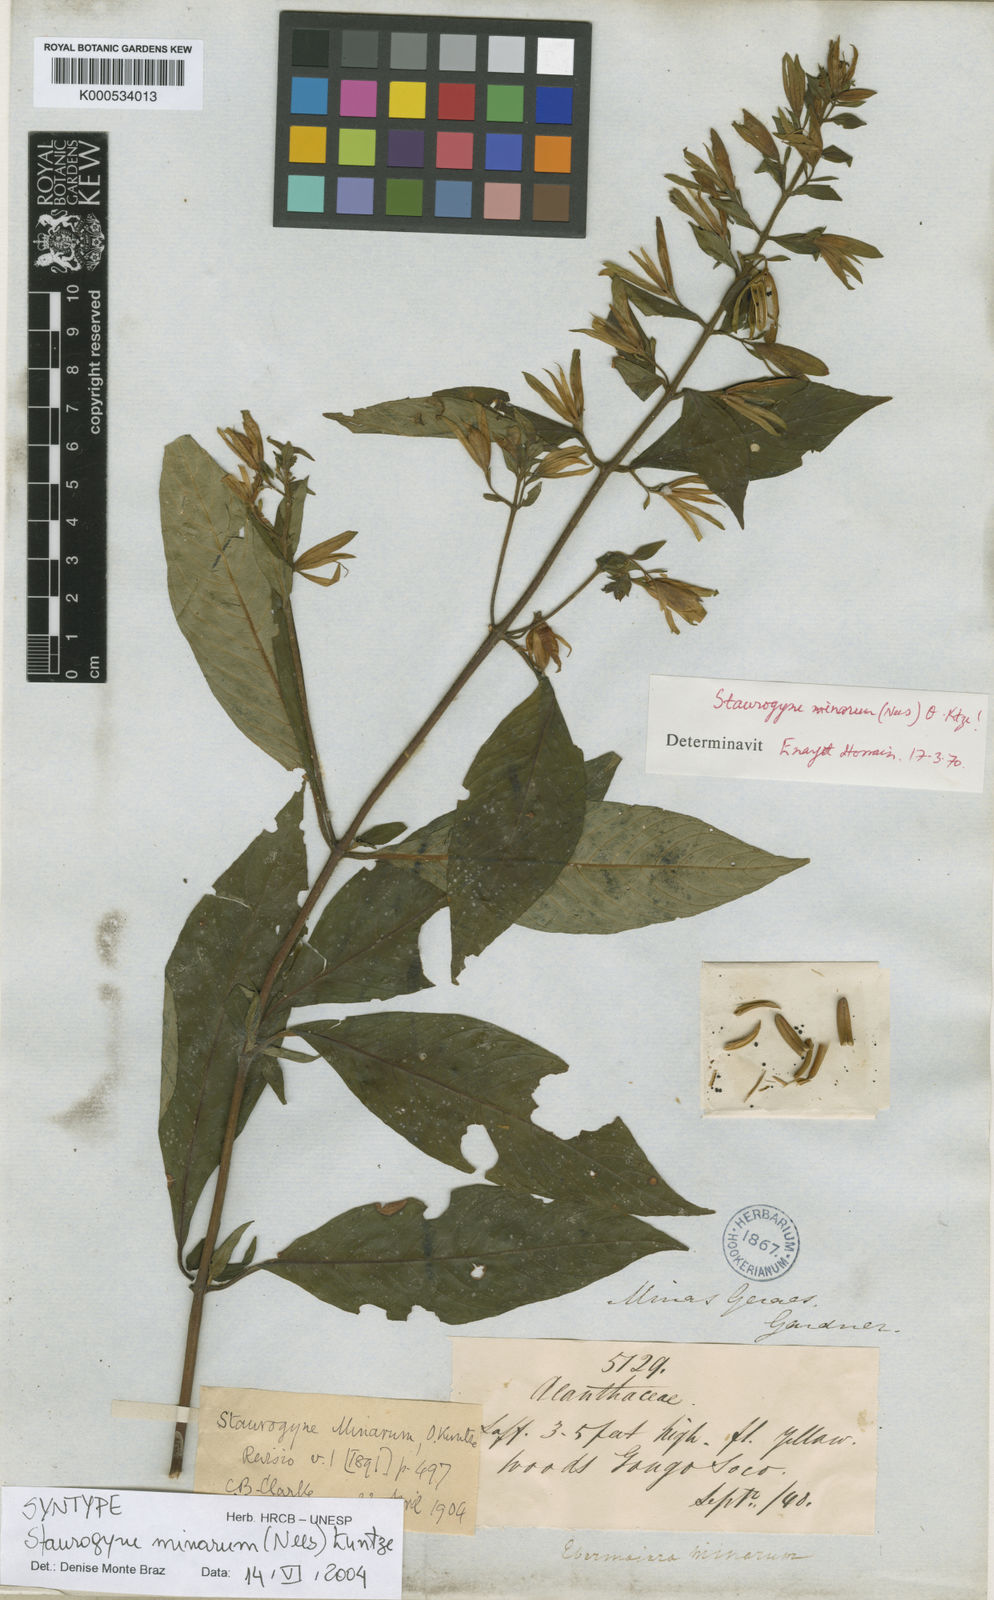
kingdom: Plantae
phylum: Tracheophyta
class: Magnoliopsida
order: Lamiales
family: Acanthaceae
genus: Staurogyne
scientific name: Staurogyne minarum
